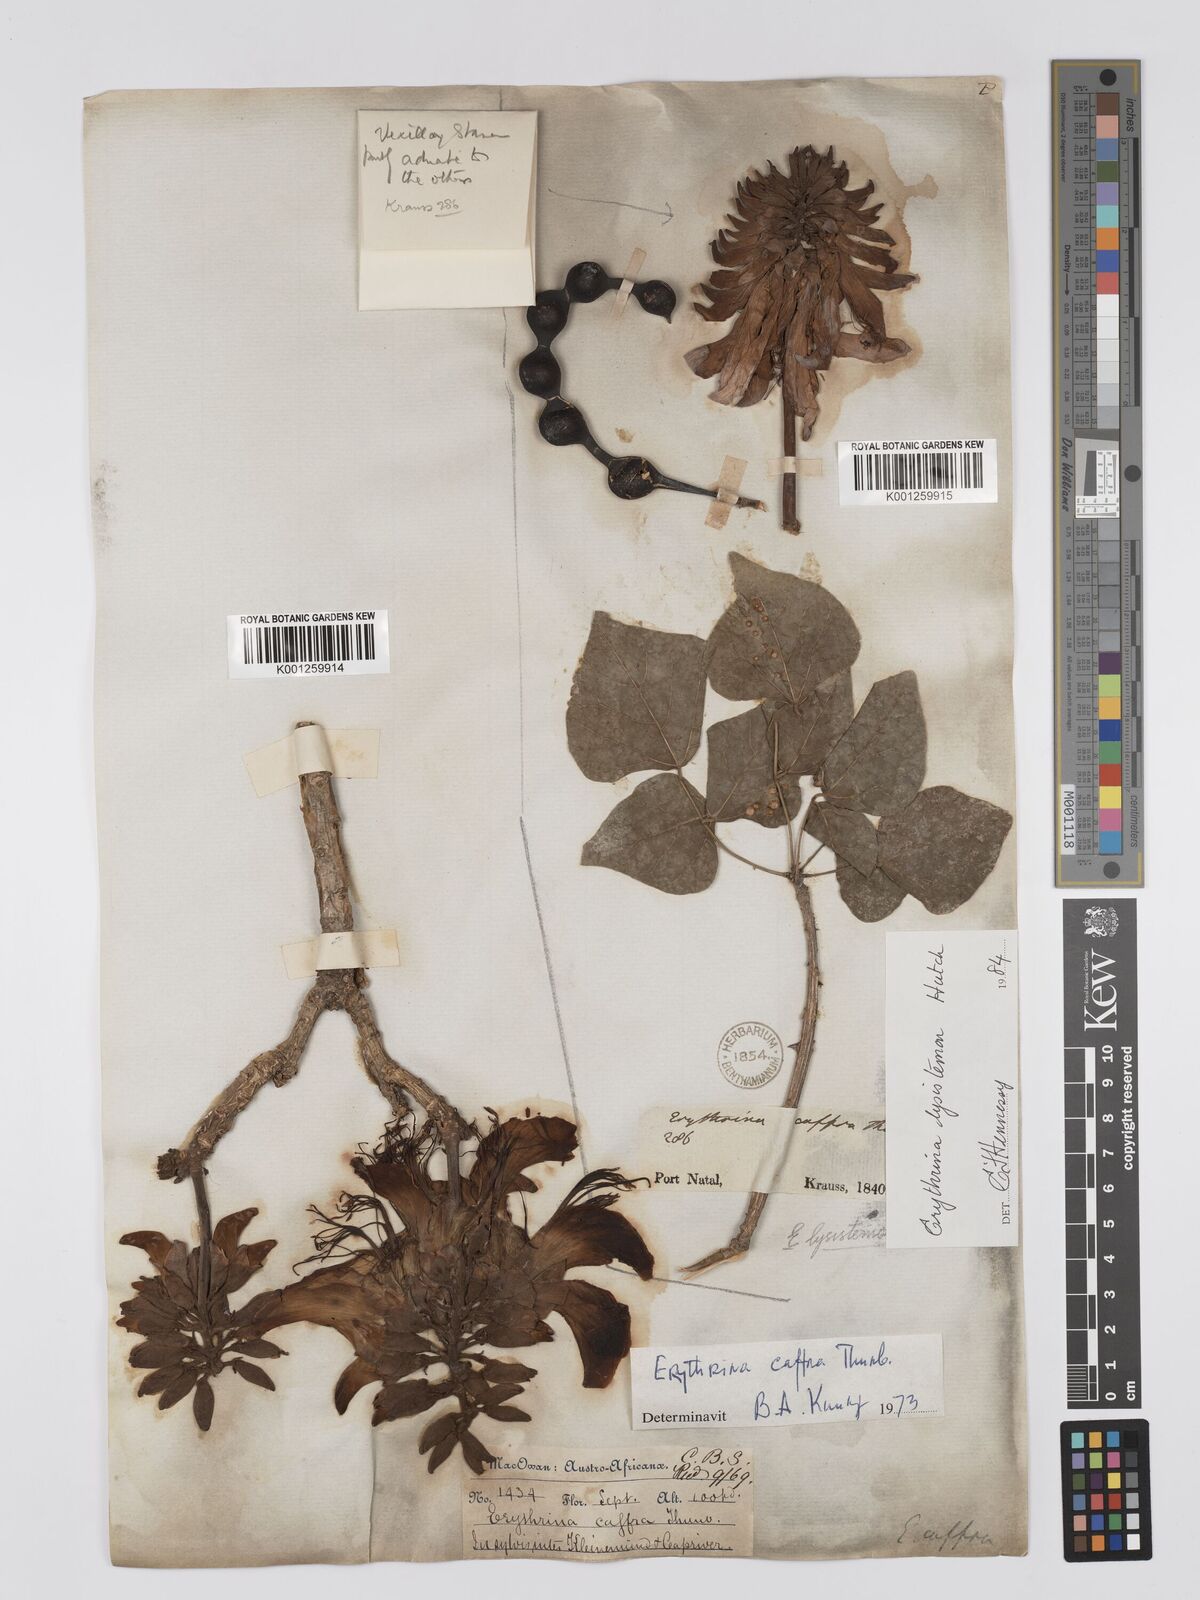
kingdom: Plantae
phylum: Tracheophyta
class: Magnoliopsida
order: Fabales
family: Fabaceae
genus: Erythrina
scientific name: Erythrina caffra
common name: Coast coral tree
